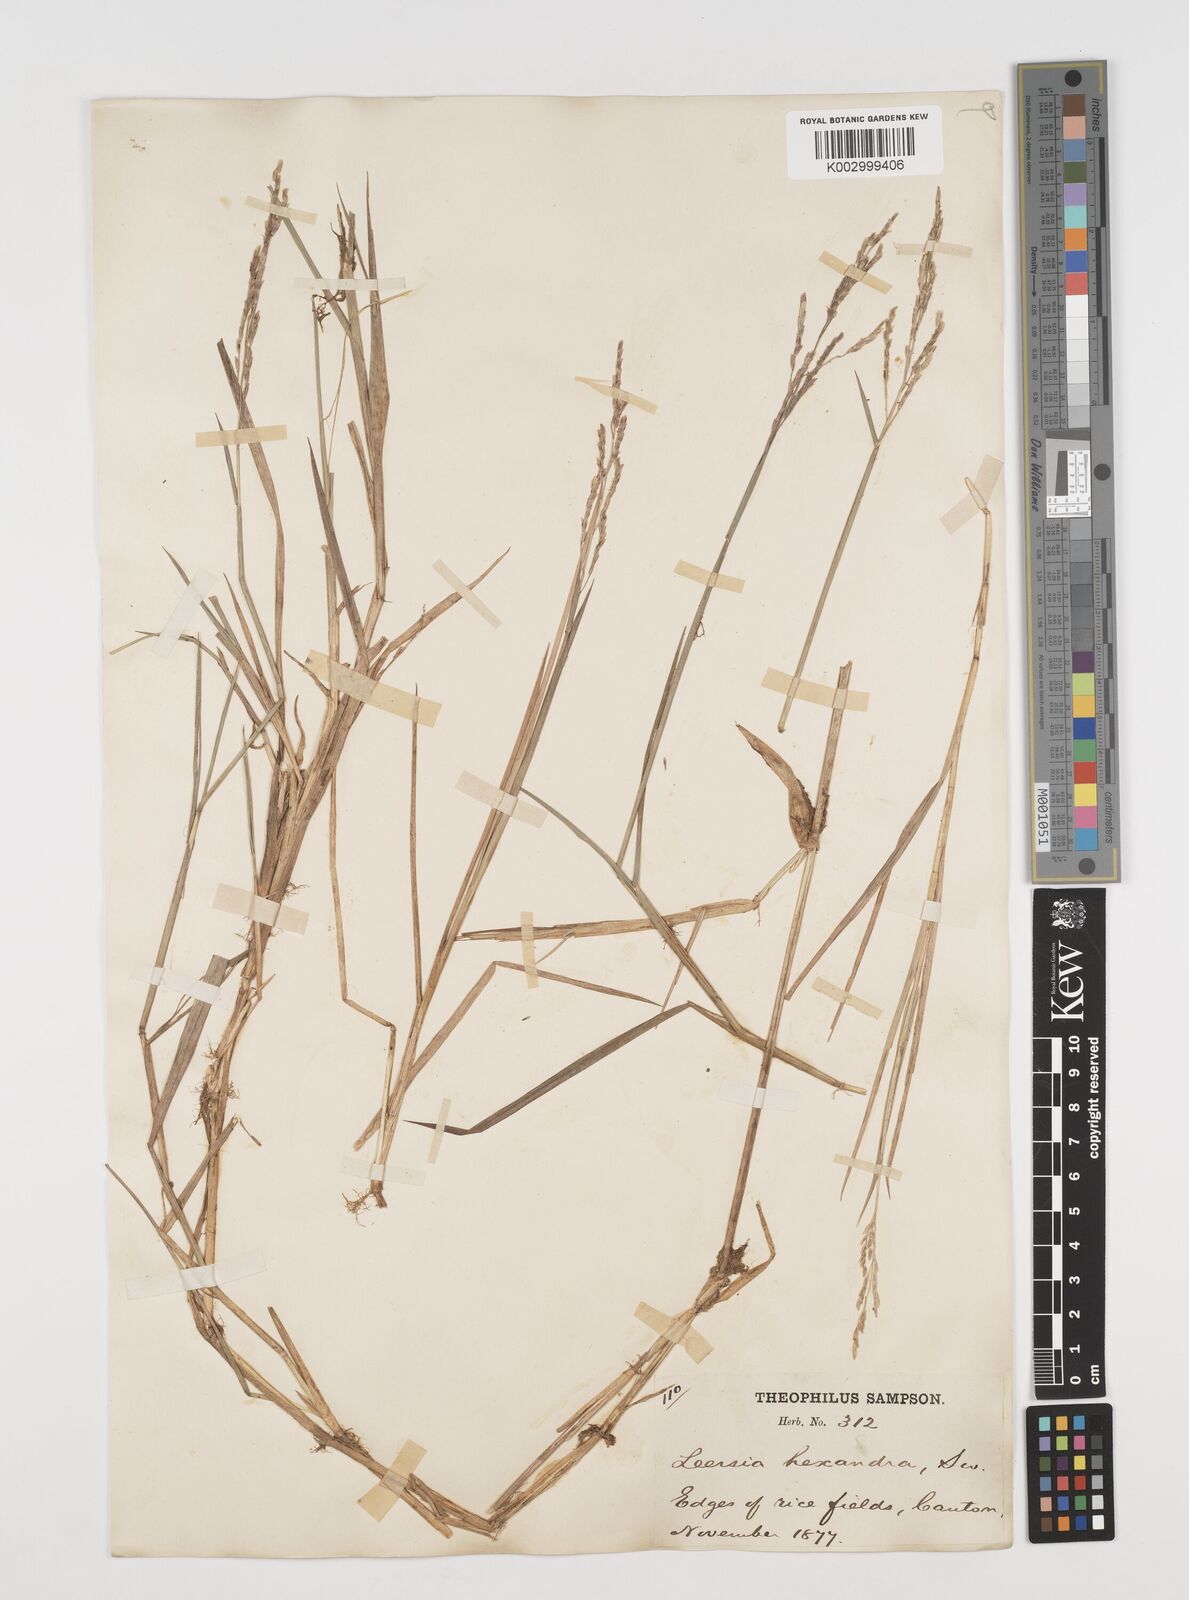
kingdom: Plantae
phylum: Tracheophyta
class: Liliopsida
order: Poales
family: Poaceae
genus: Leersia
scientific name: Leersia hexandra
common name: Southern cut grass
